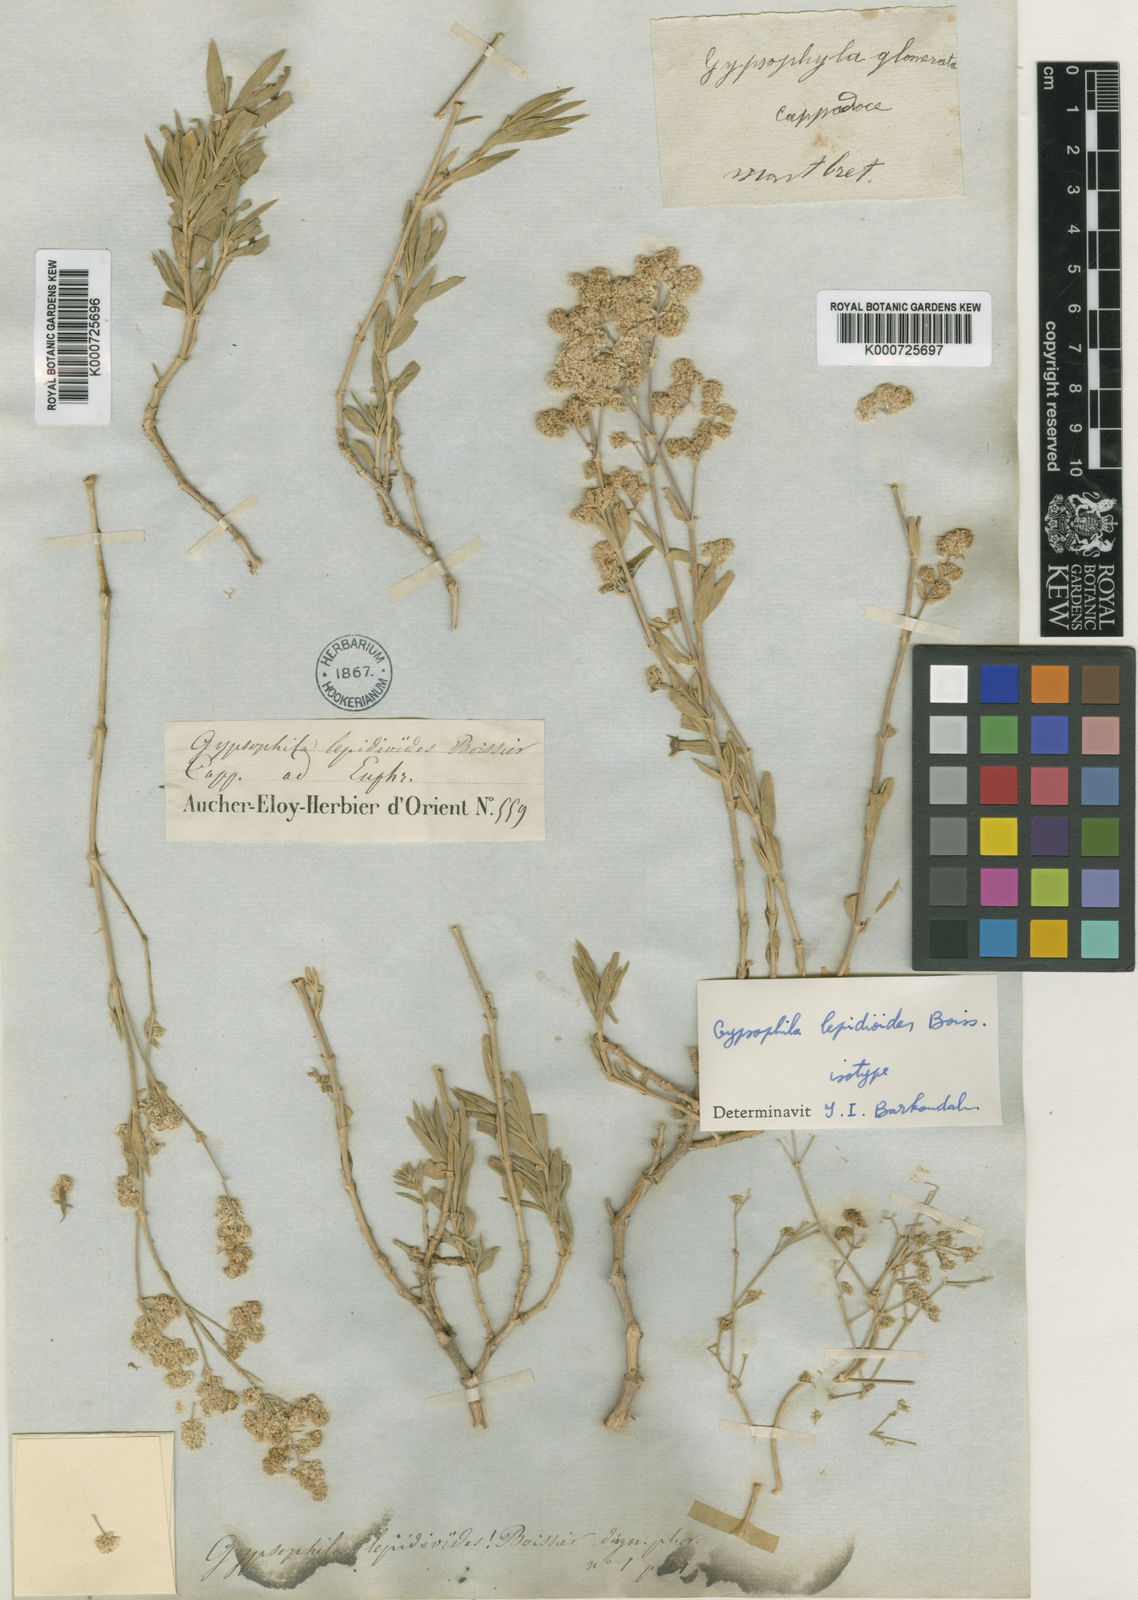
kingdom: Plantae
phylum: Tracheophyta
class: Magnoliopsida
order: Caryophyllales
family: Caryophyllaceae
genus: Gypsophila
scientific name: Gypsophila lepidioides
